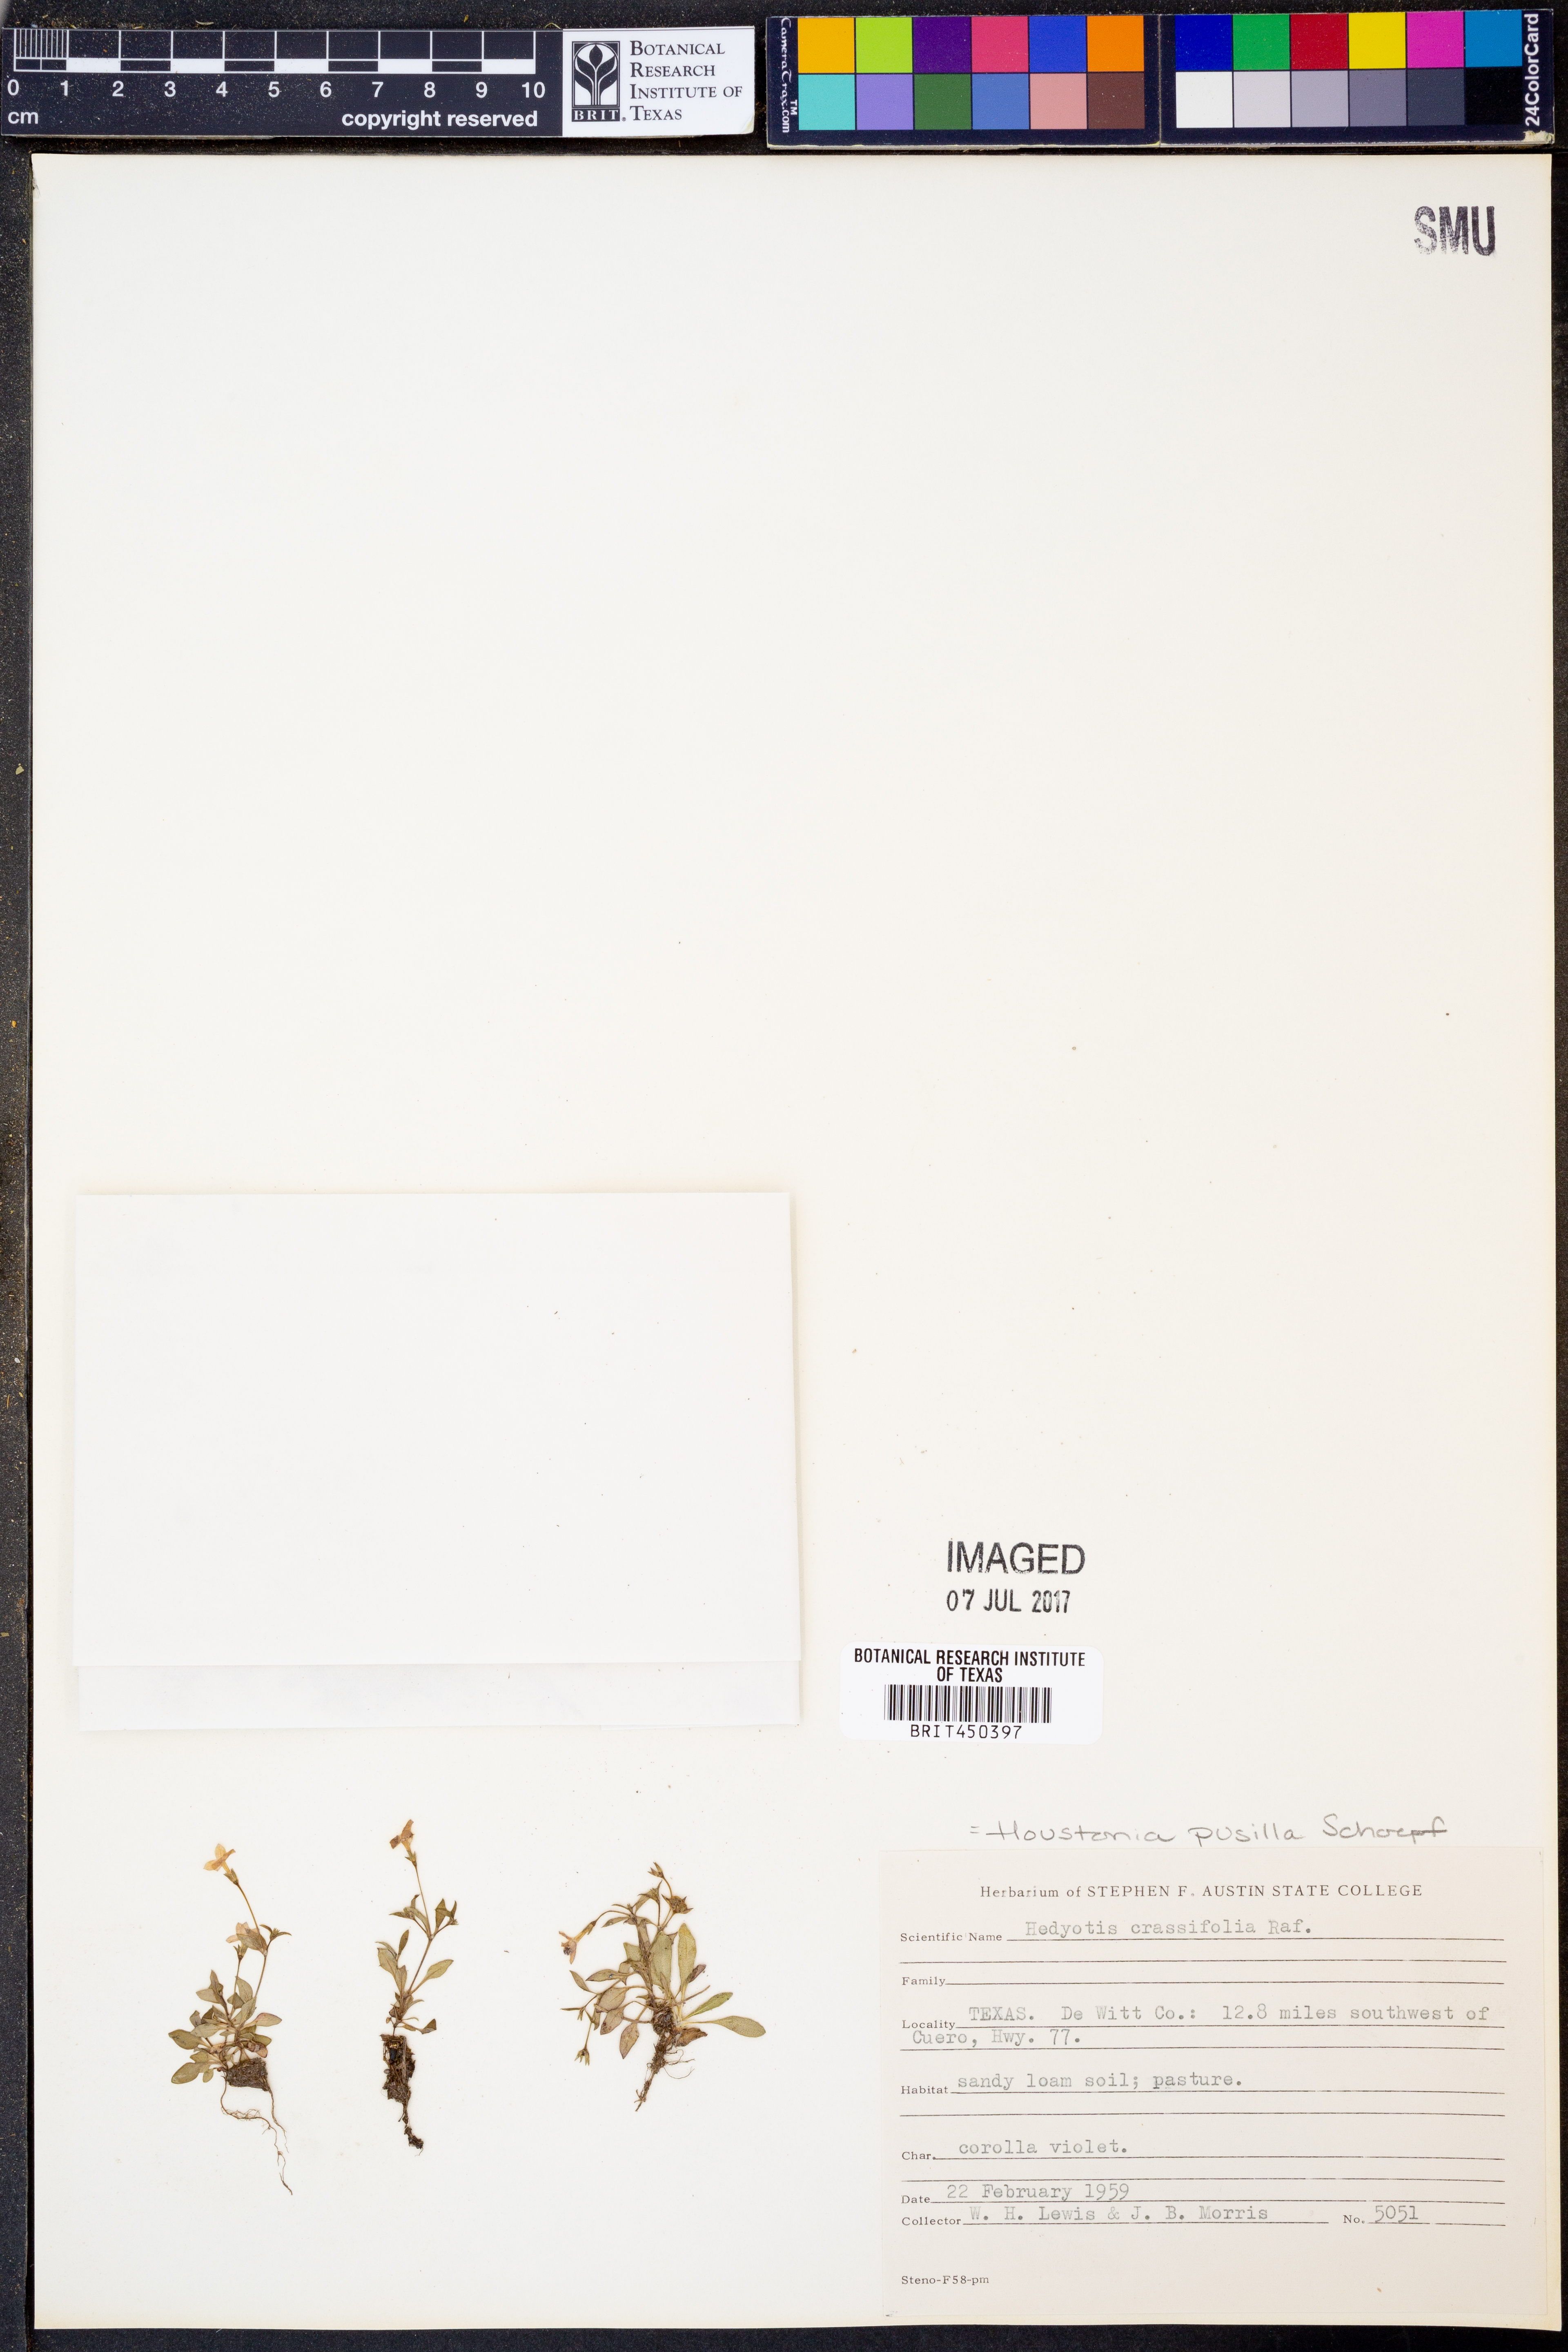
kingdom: Plantae
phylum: Tracheophyta
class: Magnoliopsida
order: Gentianales
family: Rubiaceae
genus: Houstonia
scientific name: Houstonia pusilla
